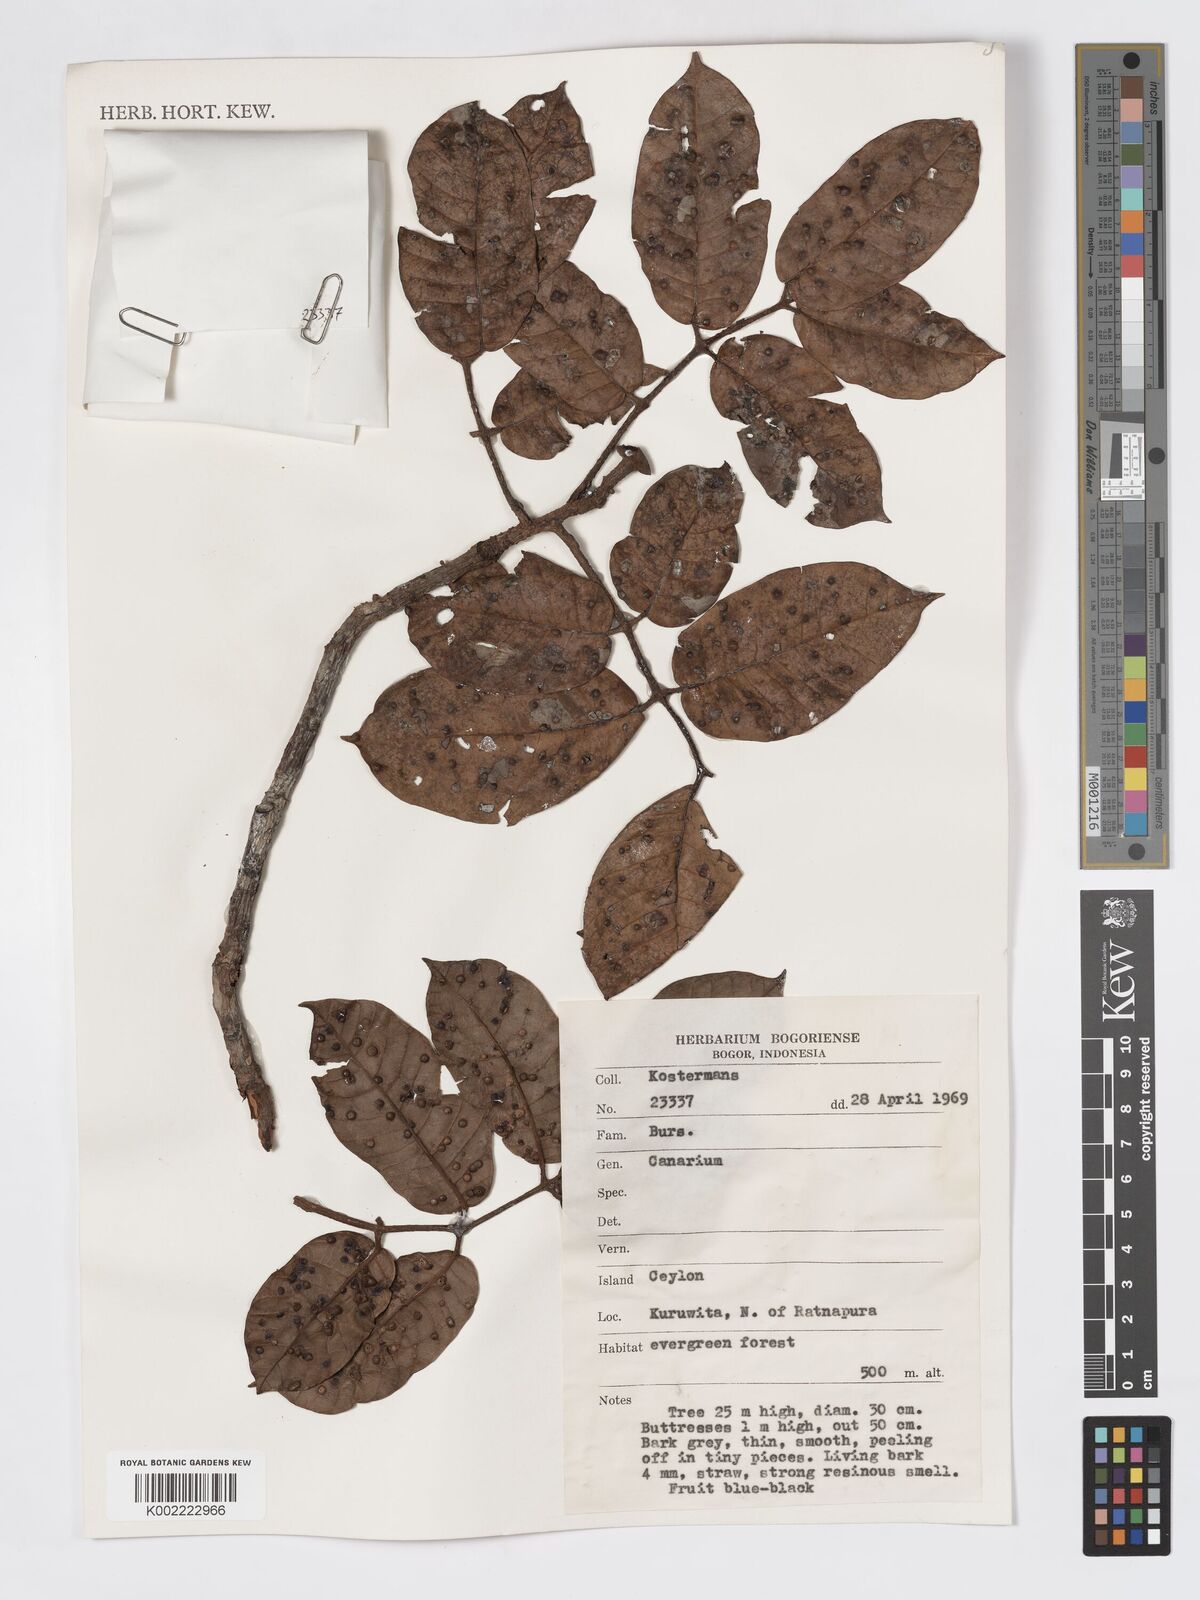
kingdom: Plantae
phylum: Tracheophyta
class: Magnoliopsida
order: Sapindales
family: Burseraceae
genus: Canarium
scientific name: Canarium
